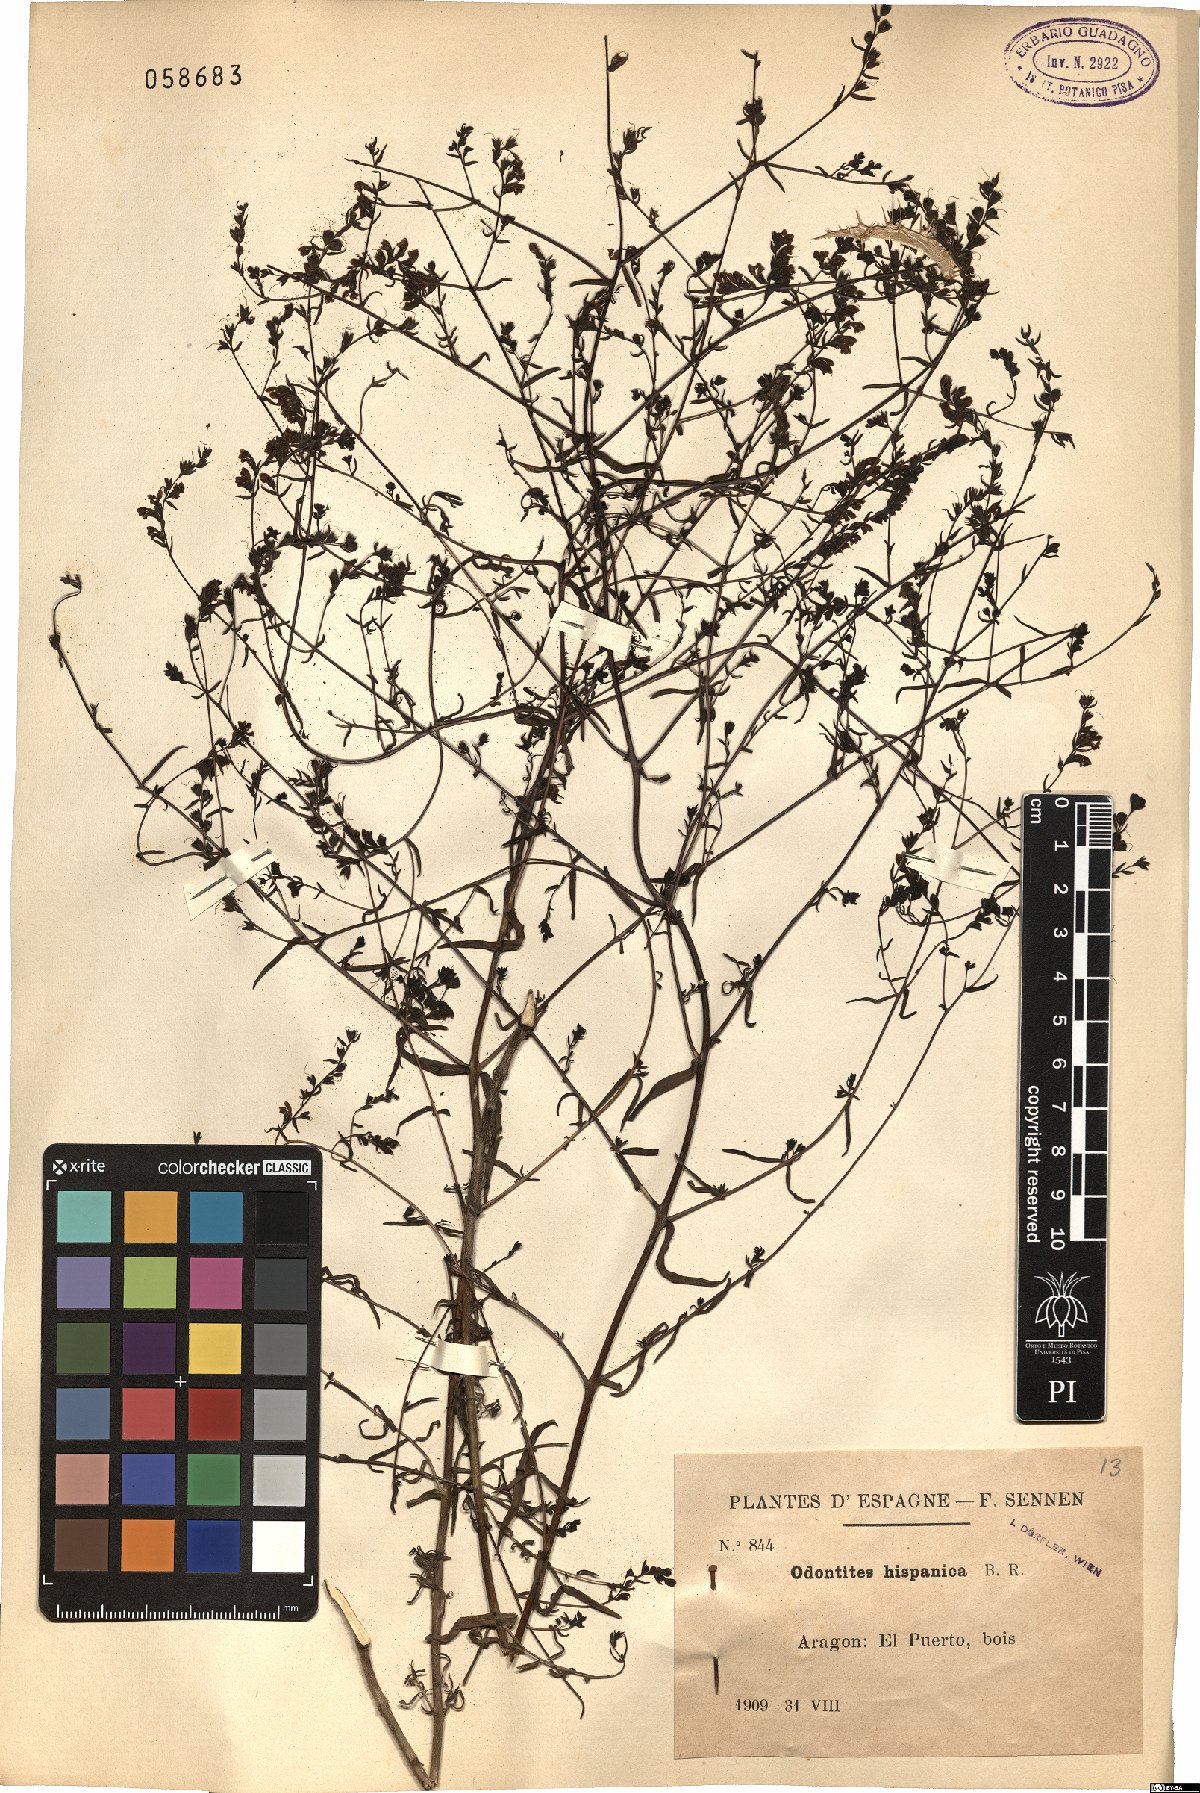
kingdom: Plantae
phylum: Tracheophyta
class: Magnoliopsida
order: Lamiales
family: Orobanchaceae
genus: Odontites
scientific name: Odontites viscosus
